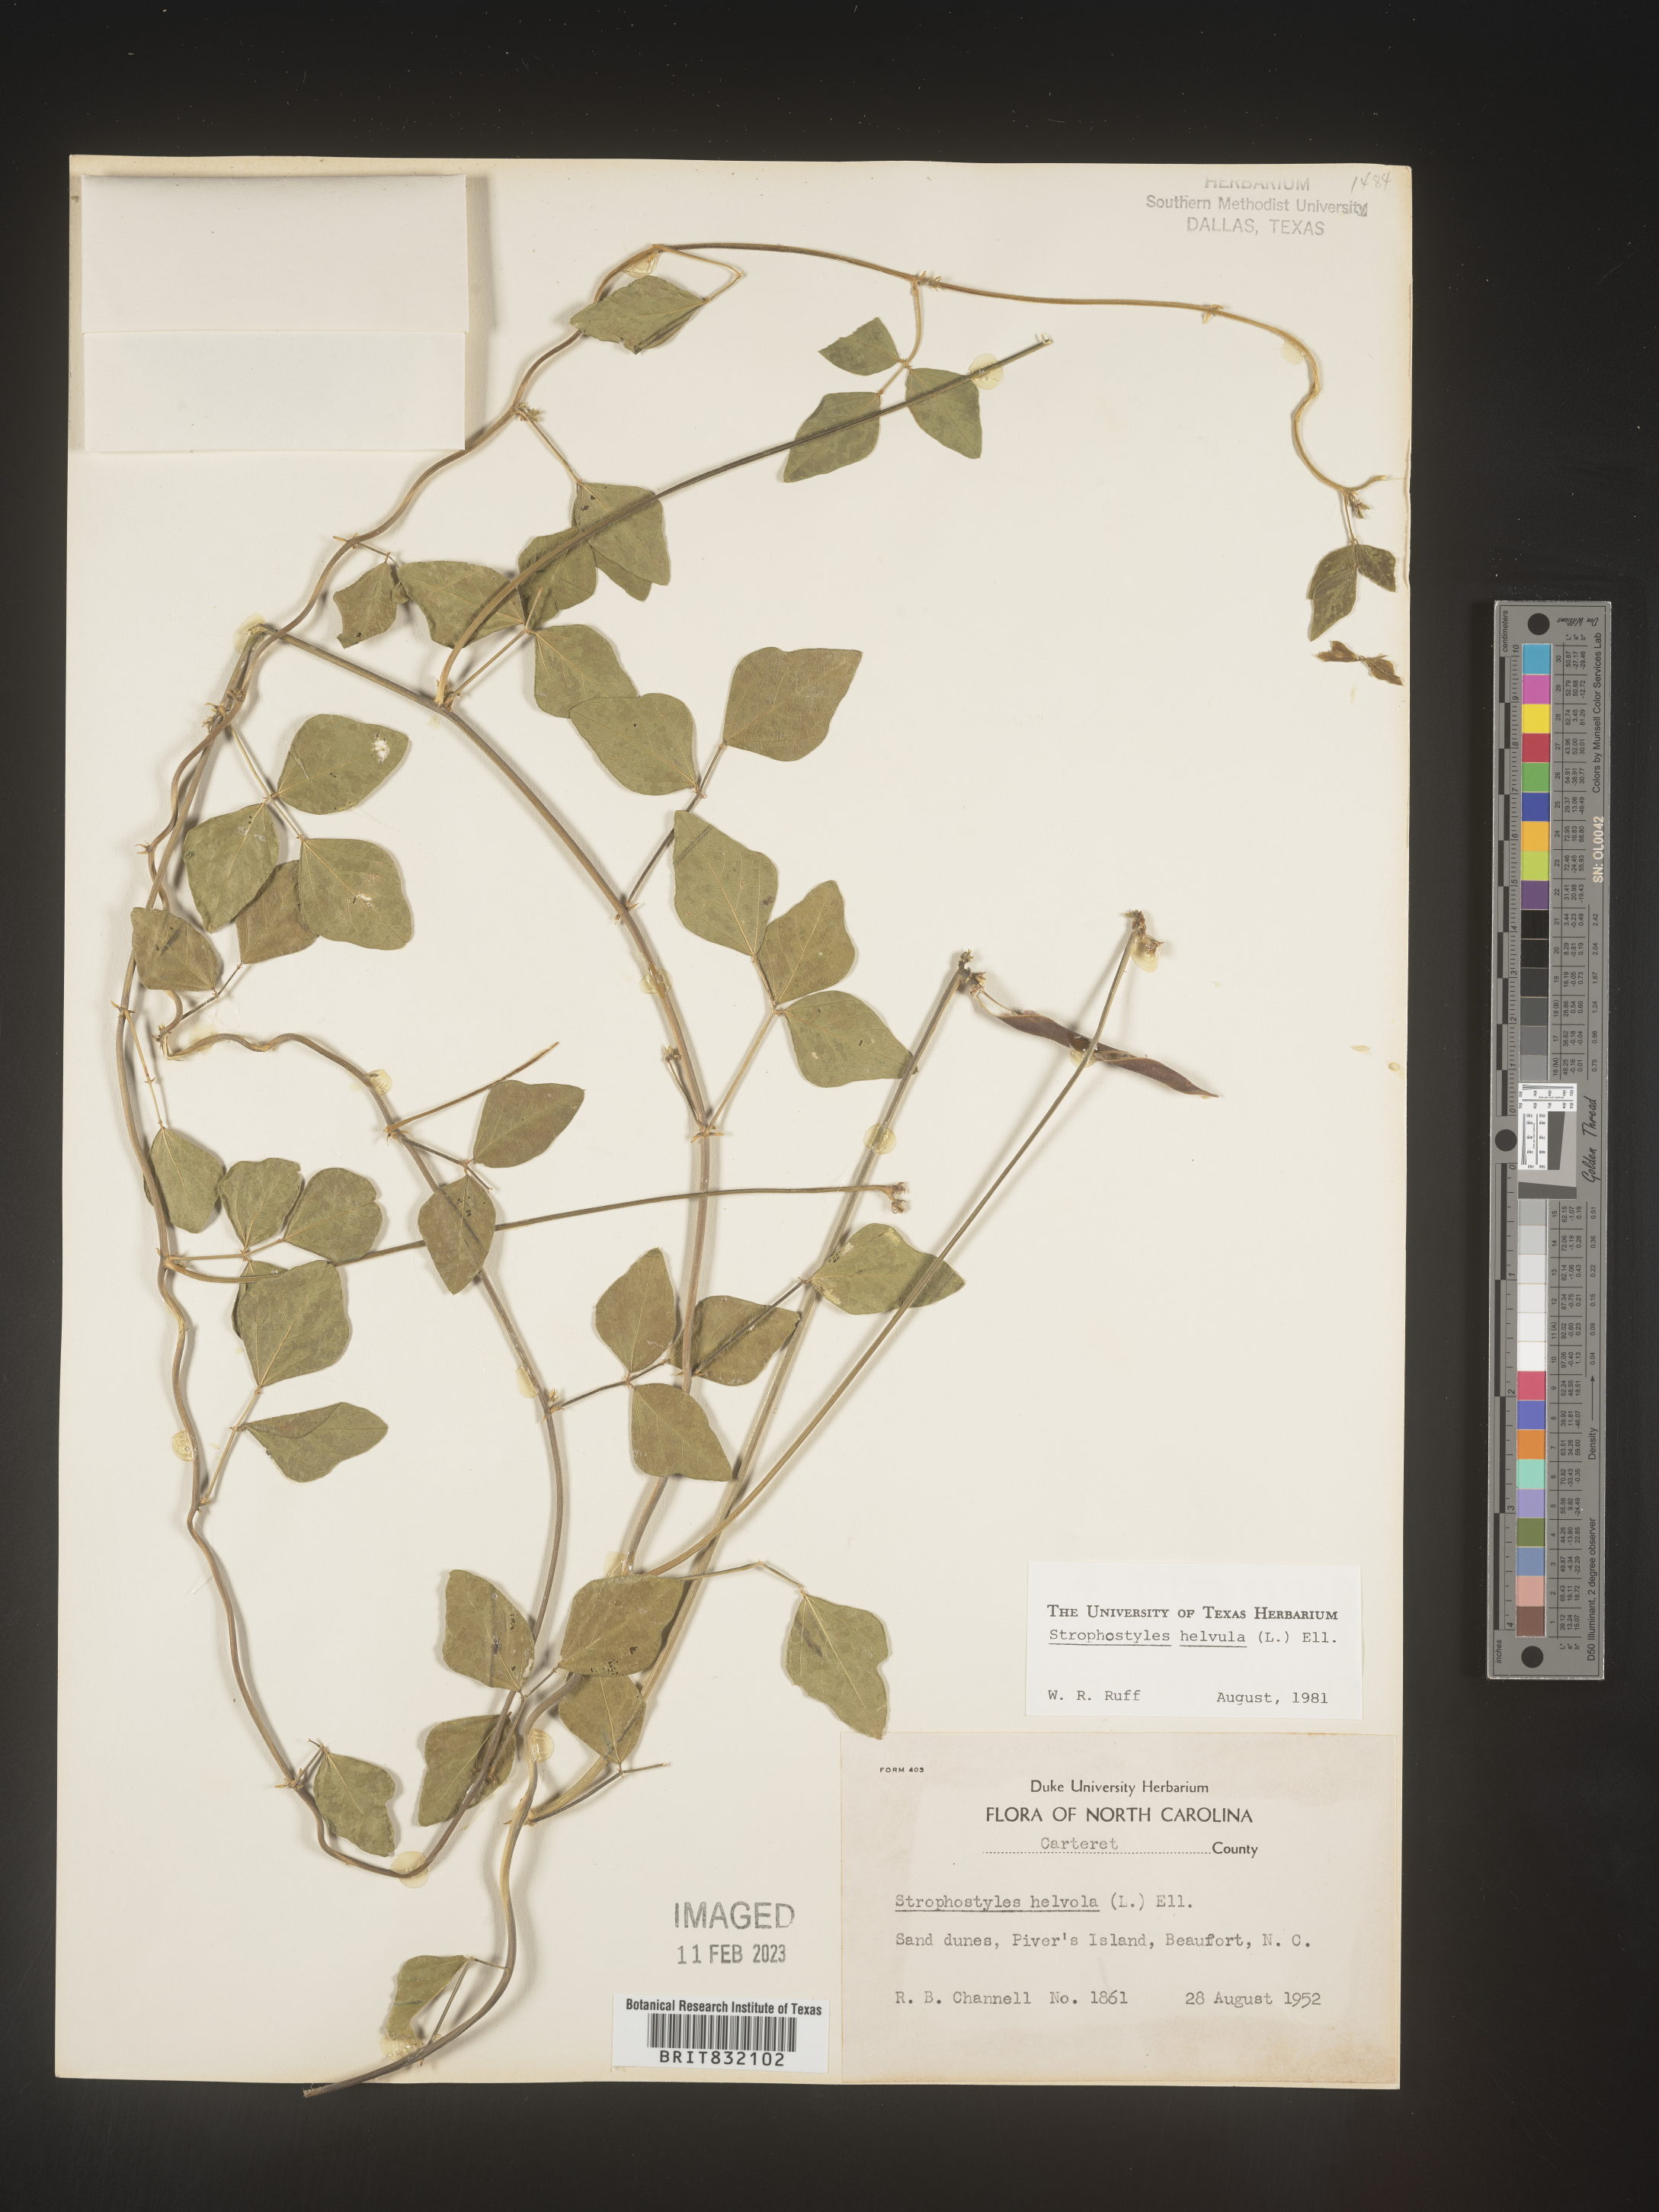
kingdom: Plantae
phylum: Tracheophyta
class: Magnoliopsida
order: Fabales
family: Fabaceae
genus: Strophostyles
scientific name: Strophostyles helvola
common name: Trailing wild bean
